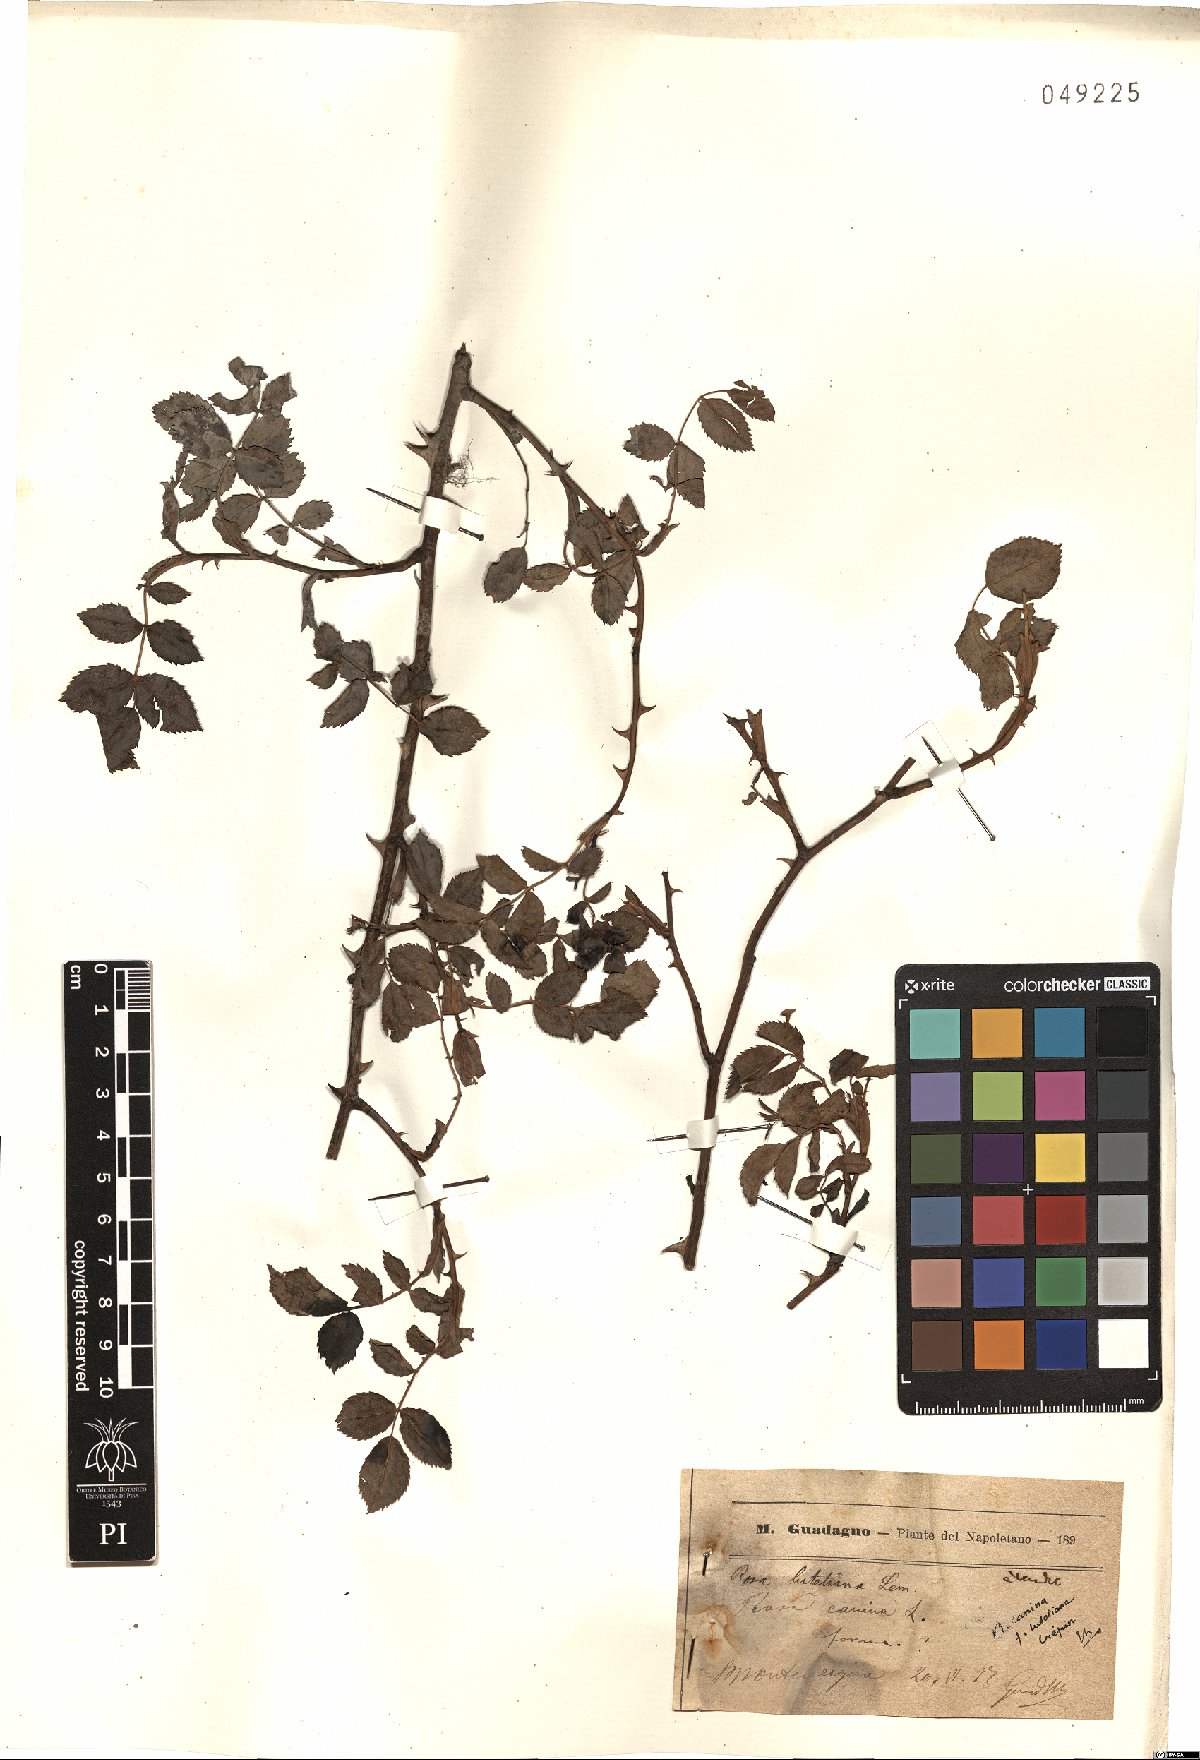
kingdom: Plantae
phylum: Tracheophyta
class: Magnoliopsida
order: Rosales
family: Rosaceae
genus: Rosa
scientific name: Rosa canina
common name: Dog rose
